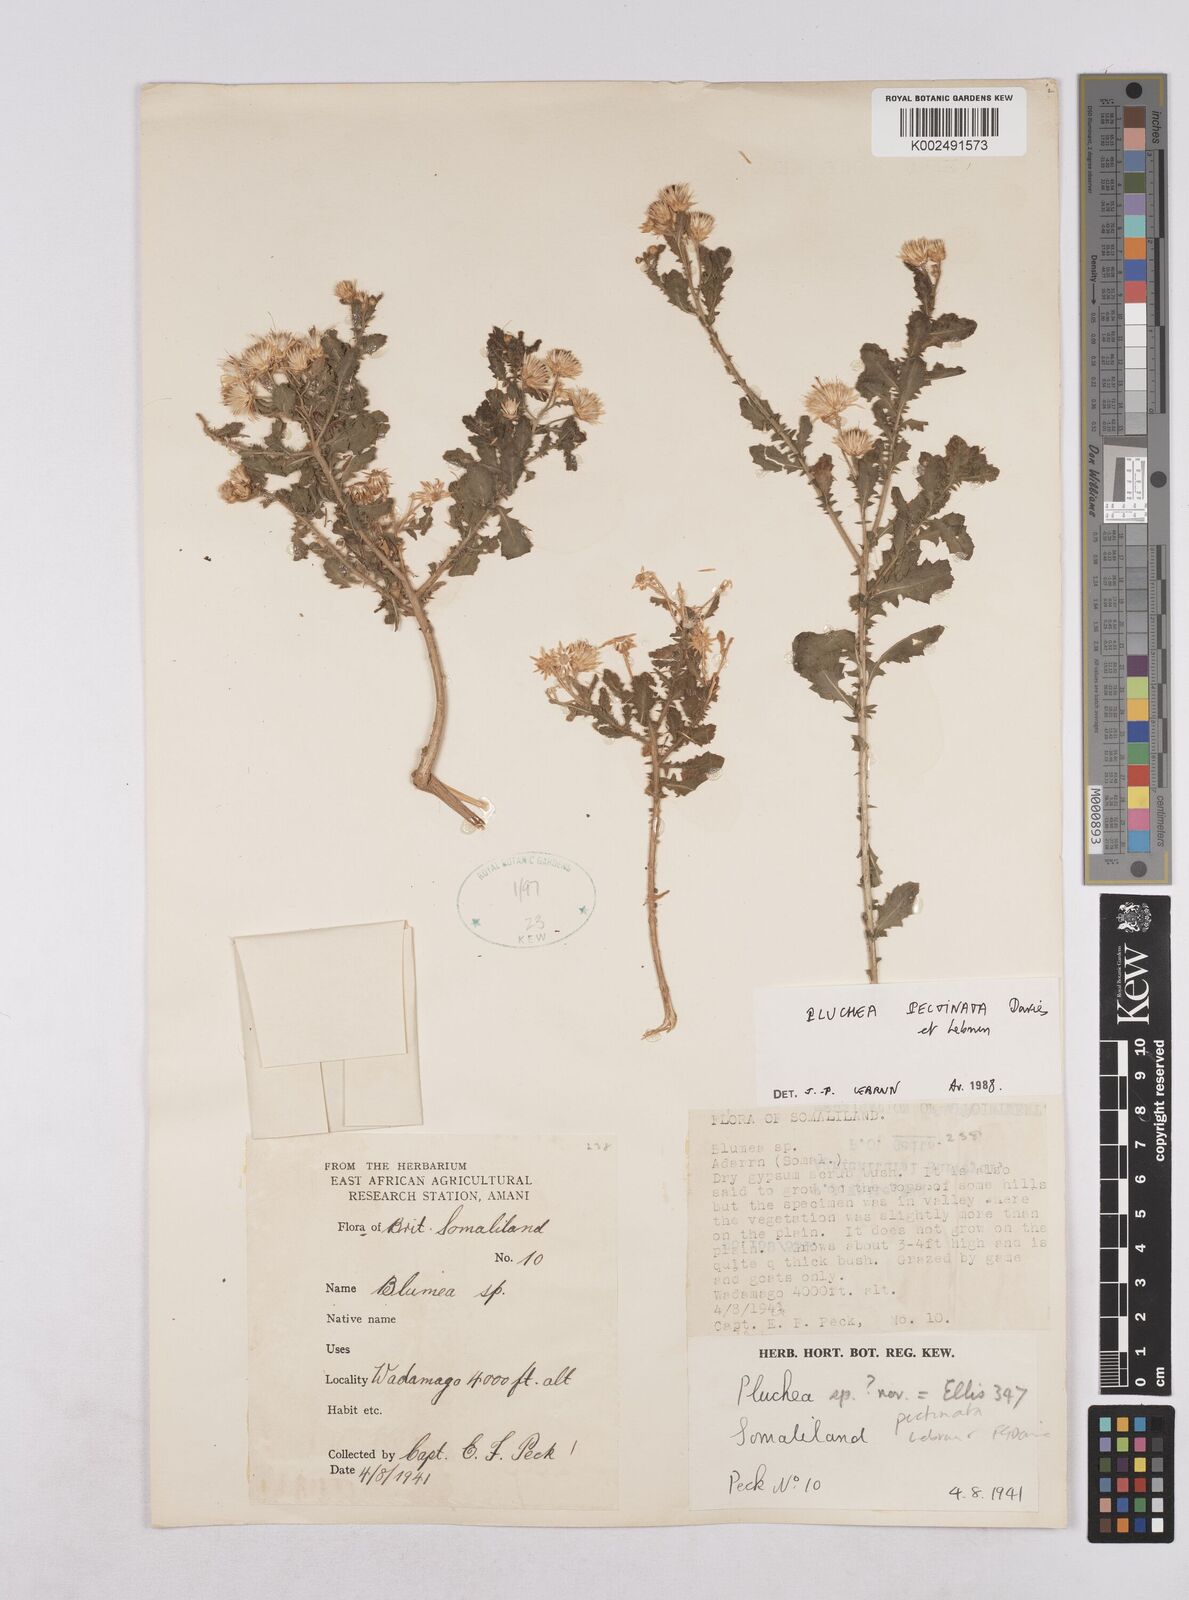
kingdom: Plantae
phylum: Tracheophyta
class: Magnoliopsida
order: Asterales
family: Asteraceae
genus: Pluchea
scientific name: Pluchea somaliensis
